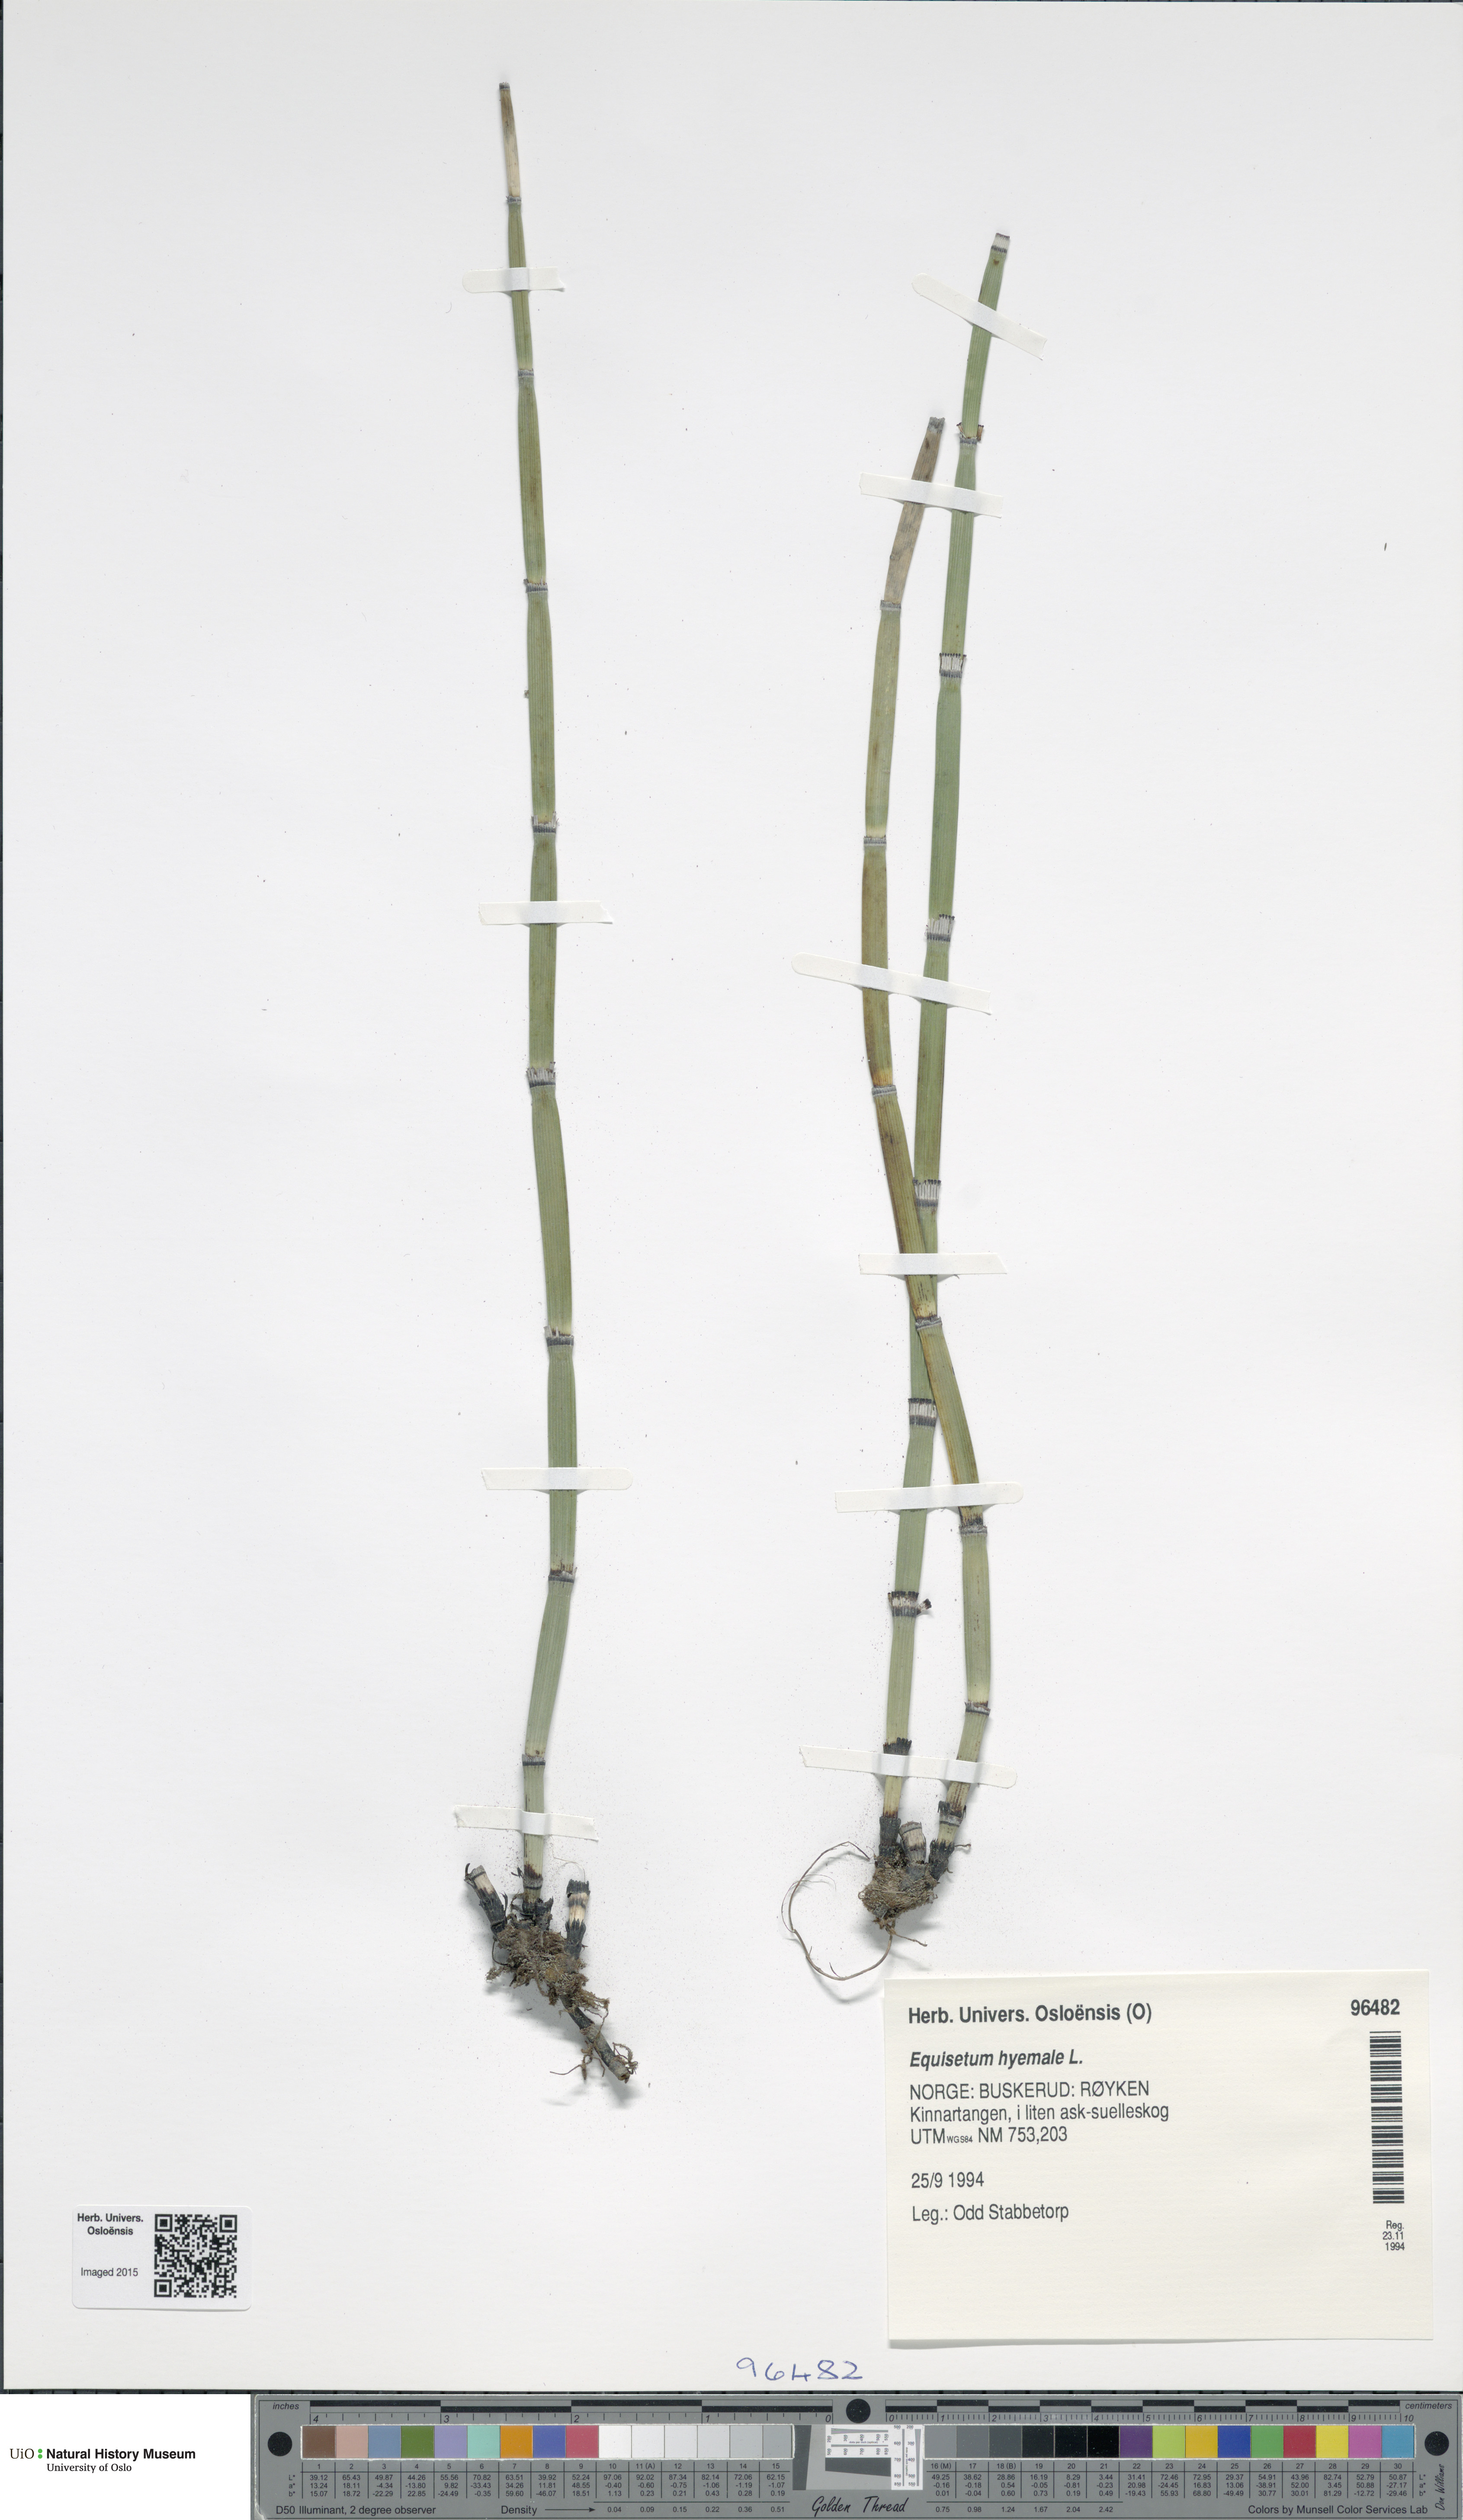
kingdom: Plantae
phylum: Tracheophyta
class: Polypodiopsida
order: Equisetales
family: Equisetaceae
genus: Equisetum
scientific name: Equisetum hyemale
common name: Rough horsetail
